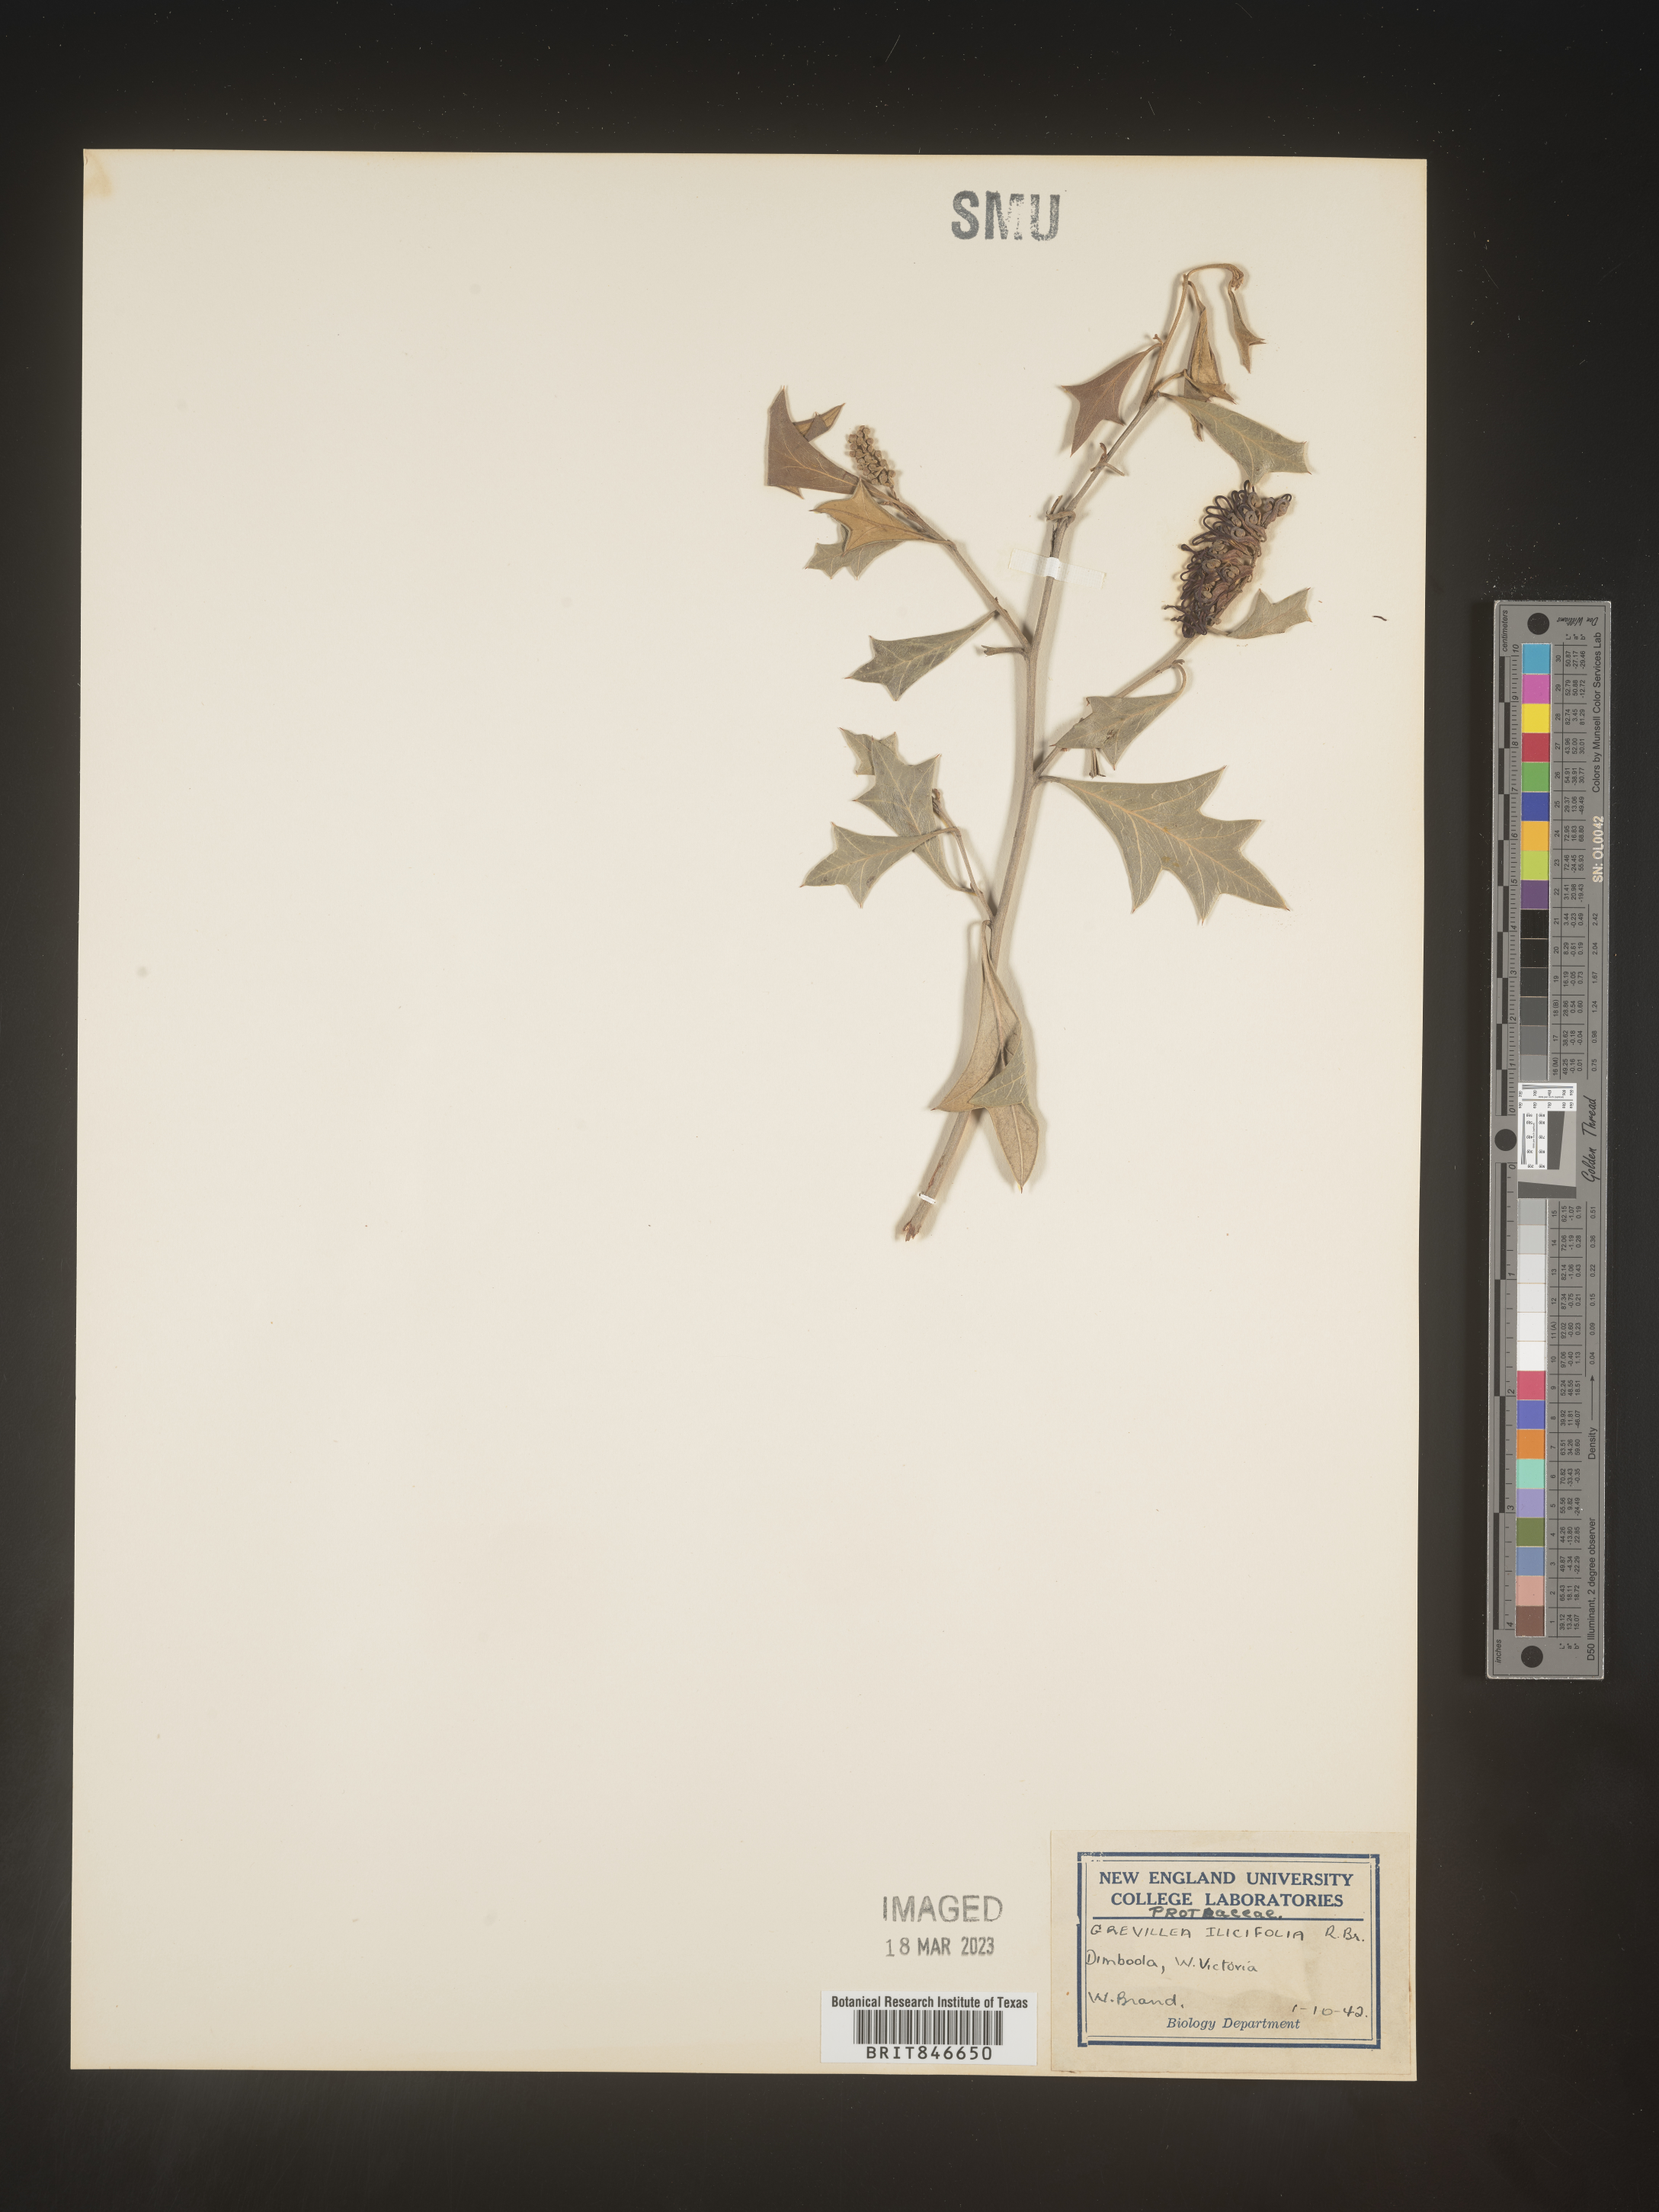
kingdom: Plantae
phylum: Tracheophyta
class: Magnoliopsida
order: Proteales
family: Proteaceae
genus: Grevillea
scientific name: Grevillea
